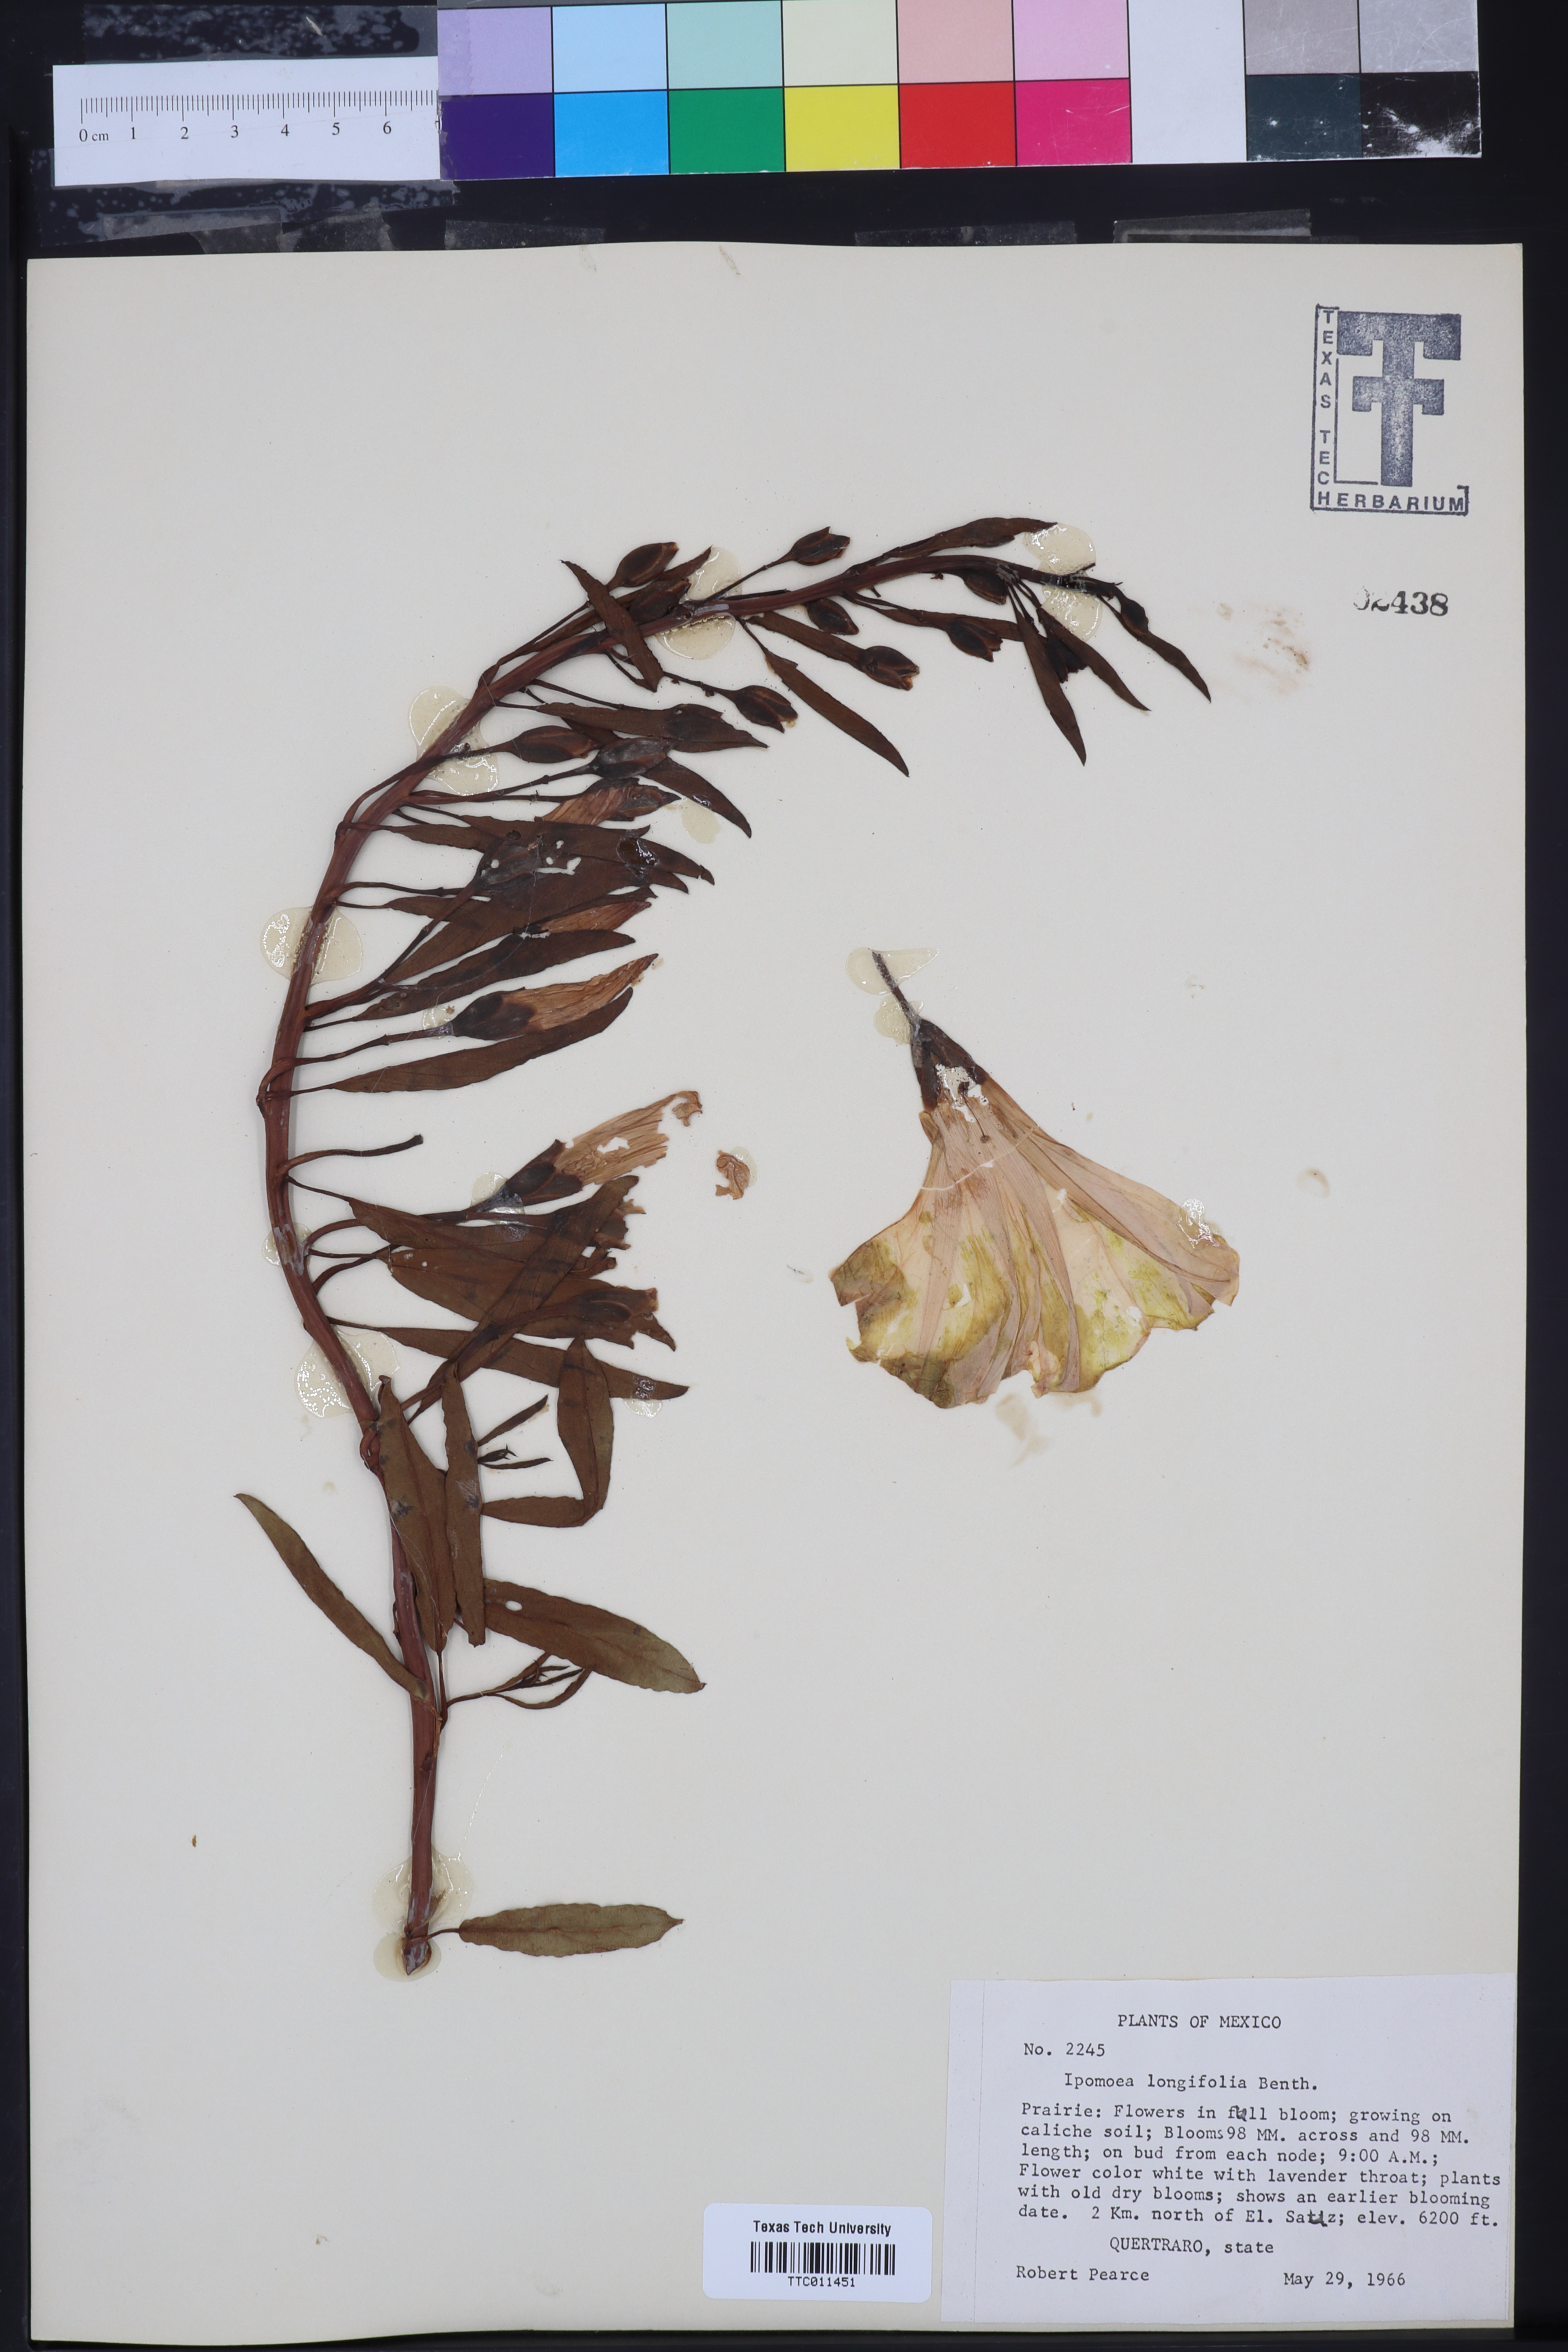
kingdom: Plantae
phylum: Tracheophyta
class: Magnoliopsida
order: Solanales
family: Convolvulaceae
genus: Ipomoea
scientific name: Ipomoea longifolia
